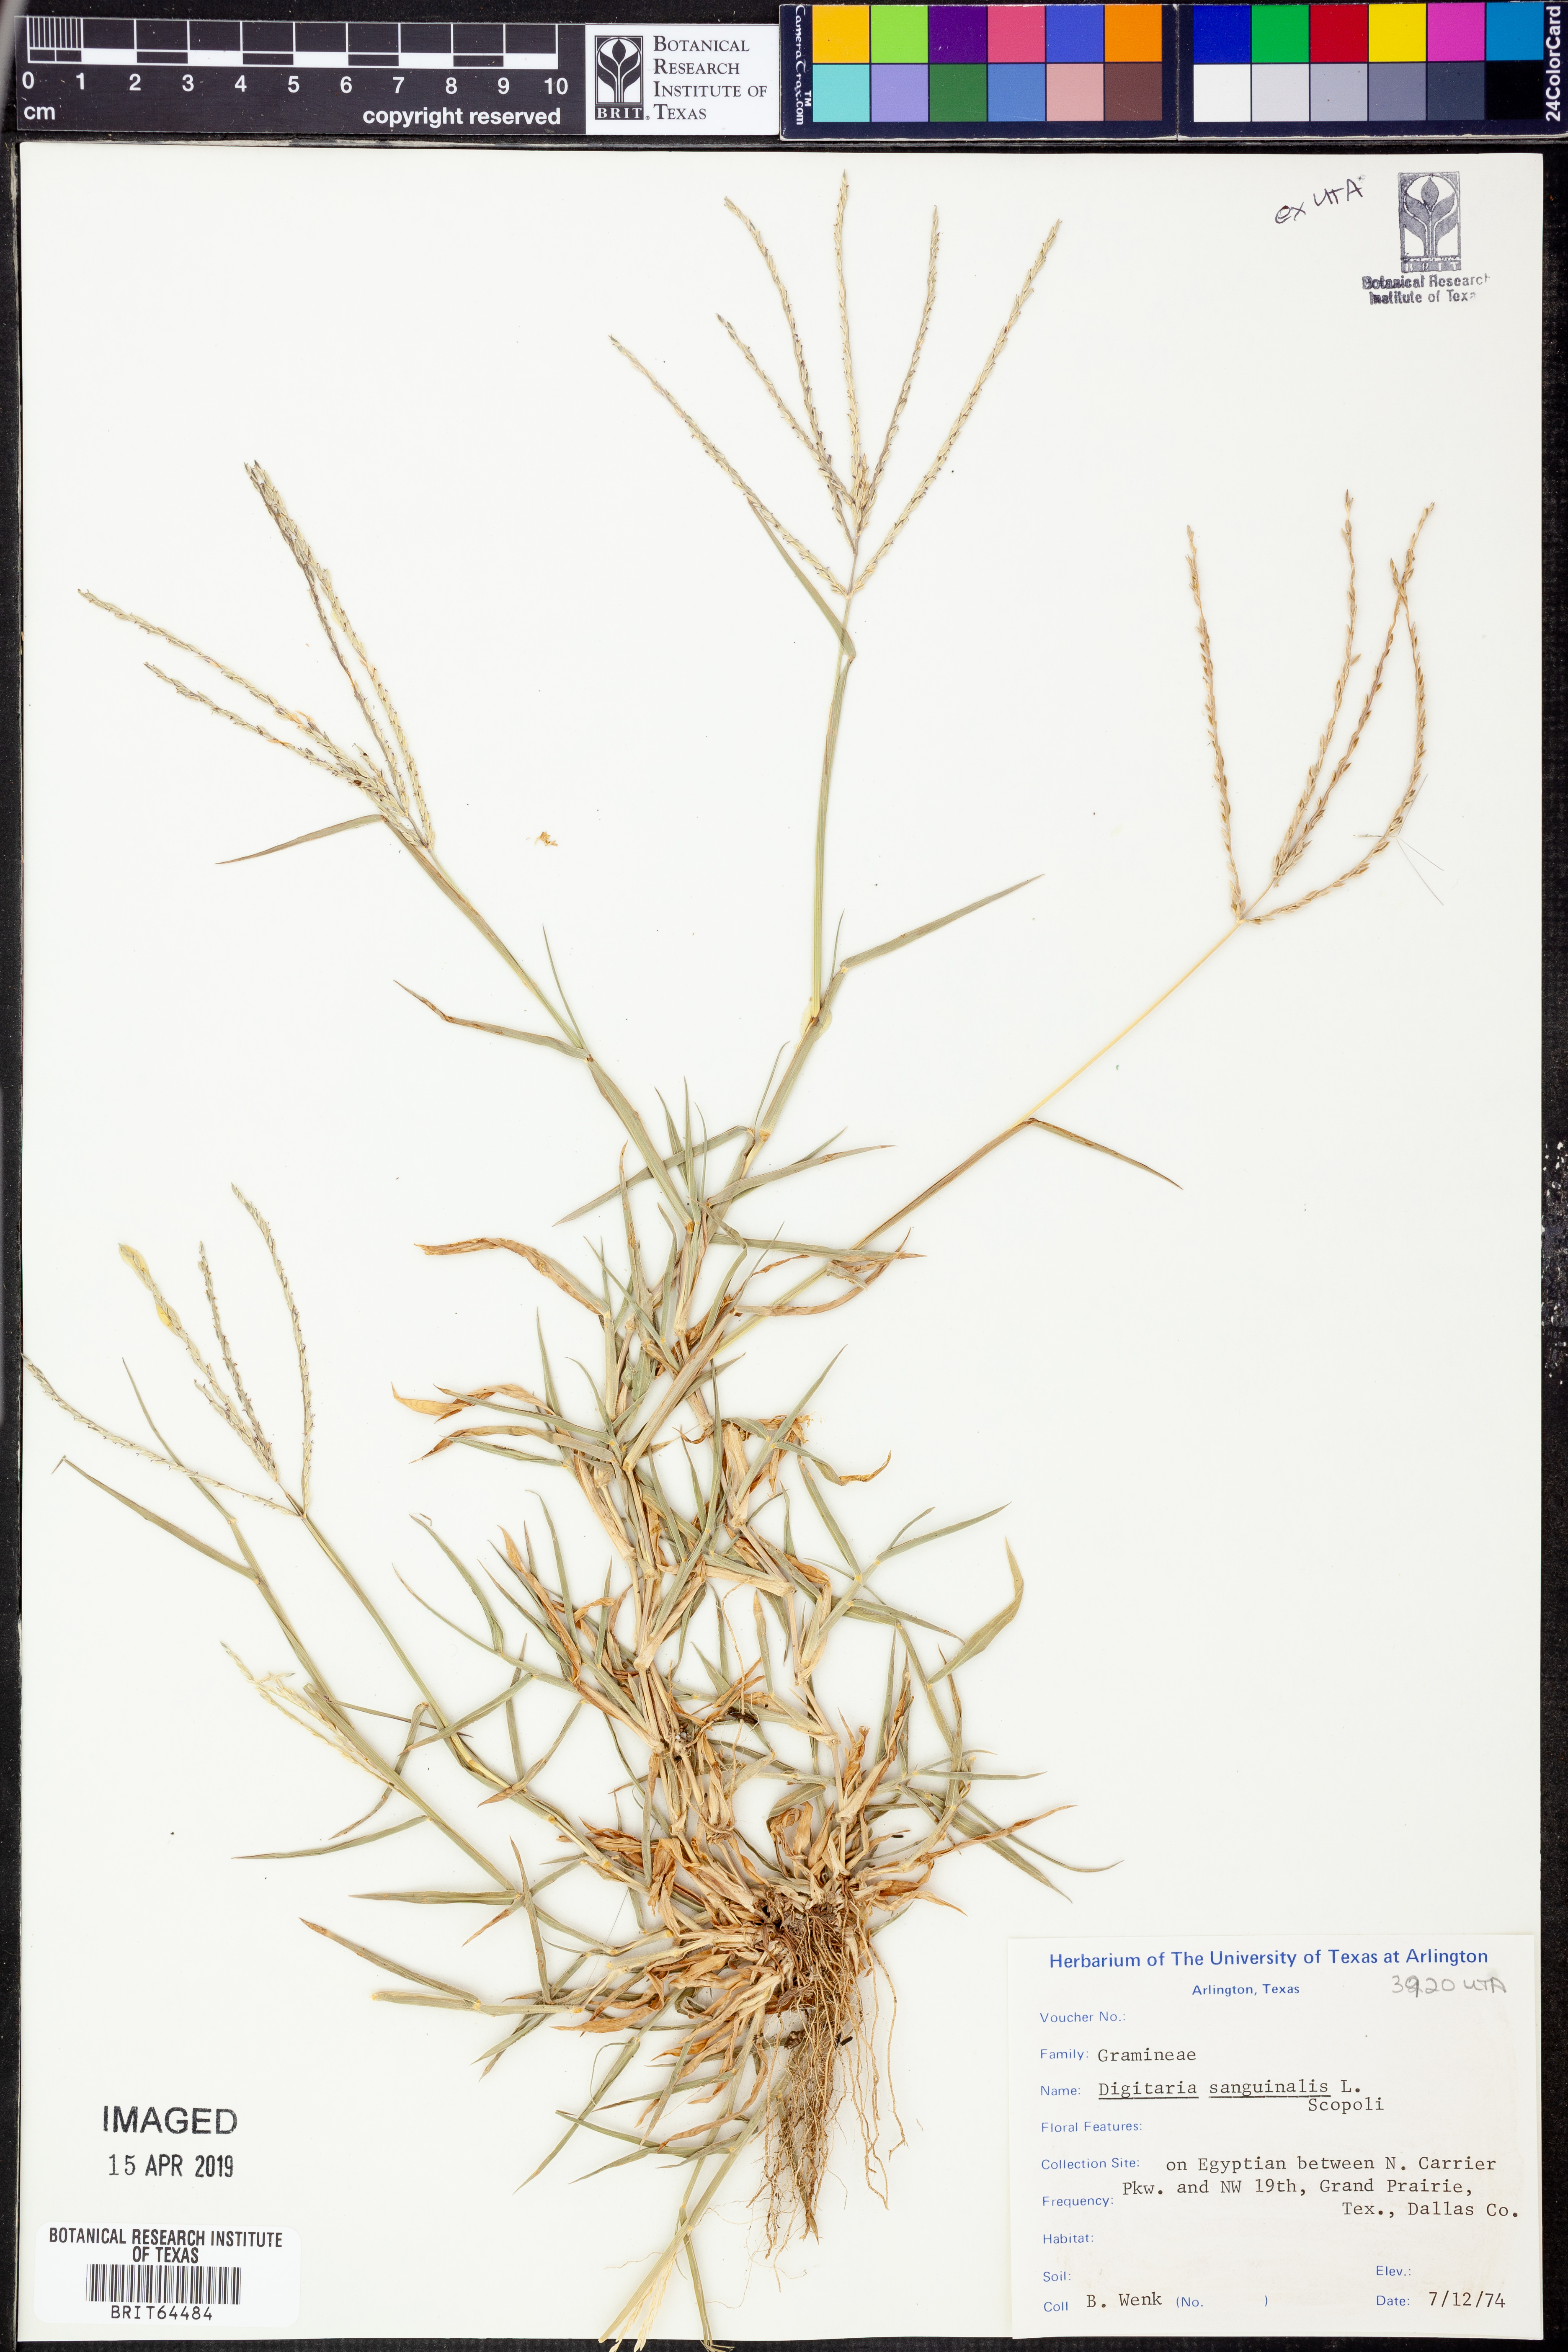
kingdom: Plantae
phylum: Tracheophyta
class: Liliopsida
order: Poales
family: Poaceae
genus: Digitaria
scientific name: Digitaria sanguinalis
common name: Hairy crabgrass
